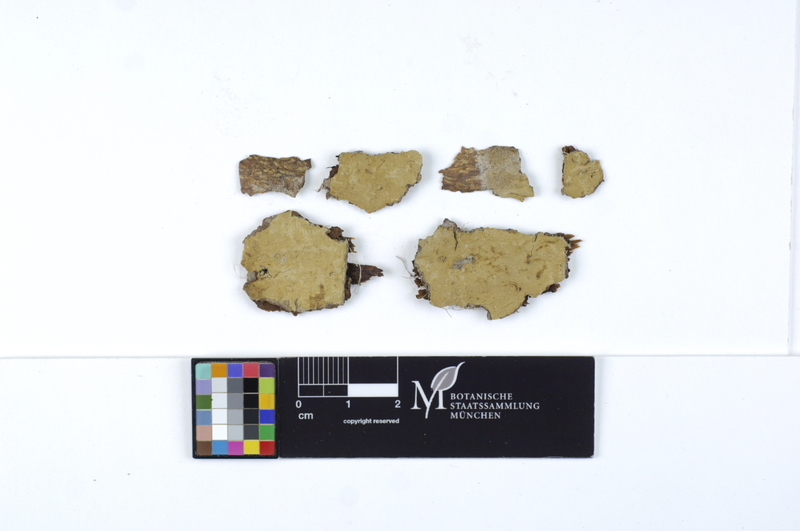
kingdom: Fungi
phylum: Basidiomycota
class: Agaricomycetes
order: Boletales
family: Coniophoraceae
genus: Coniophora
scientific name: Coniophora arida
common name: Dry duster
